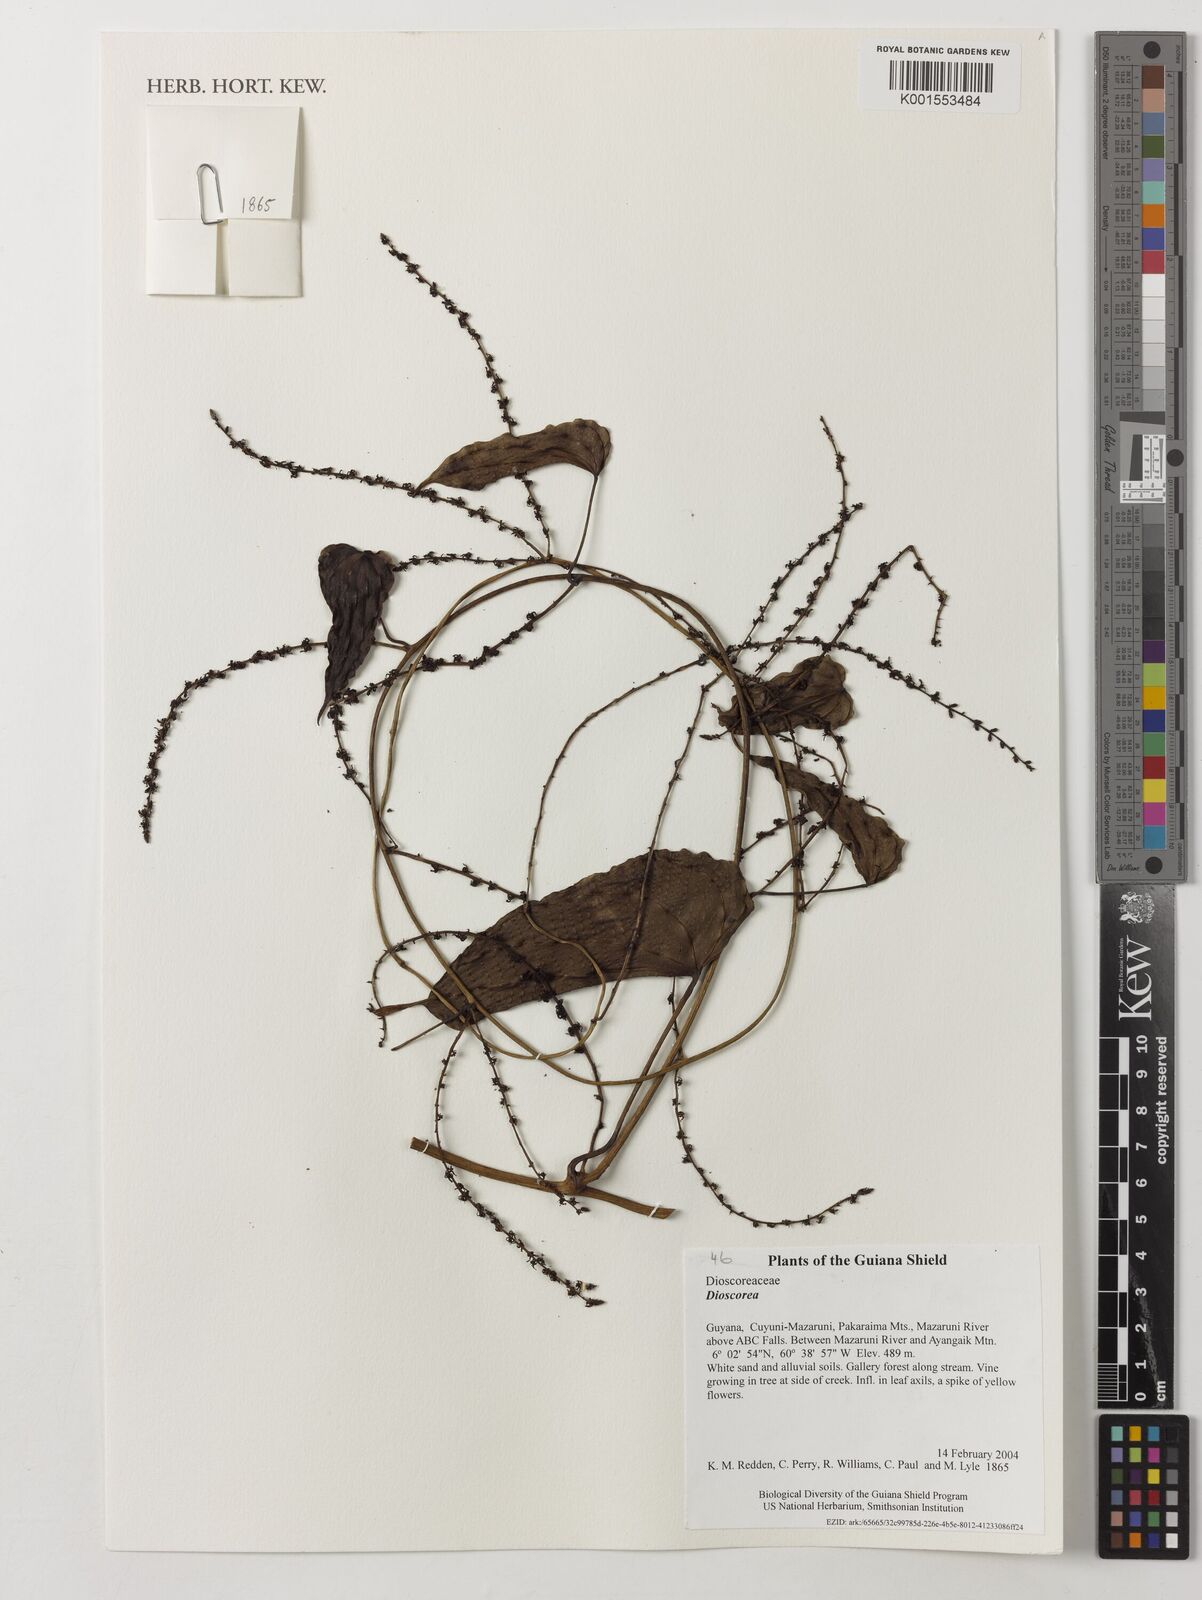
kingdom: Plantae
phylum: Tracheophyta
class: Liliopsida
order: Dioscoreales
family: Dioscoreaceae
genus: Dioscorea
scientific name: Dioscorea
